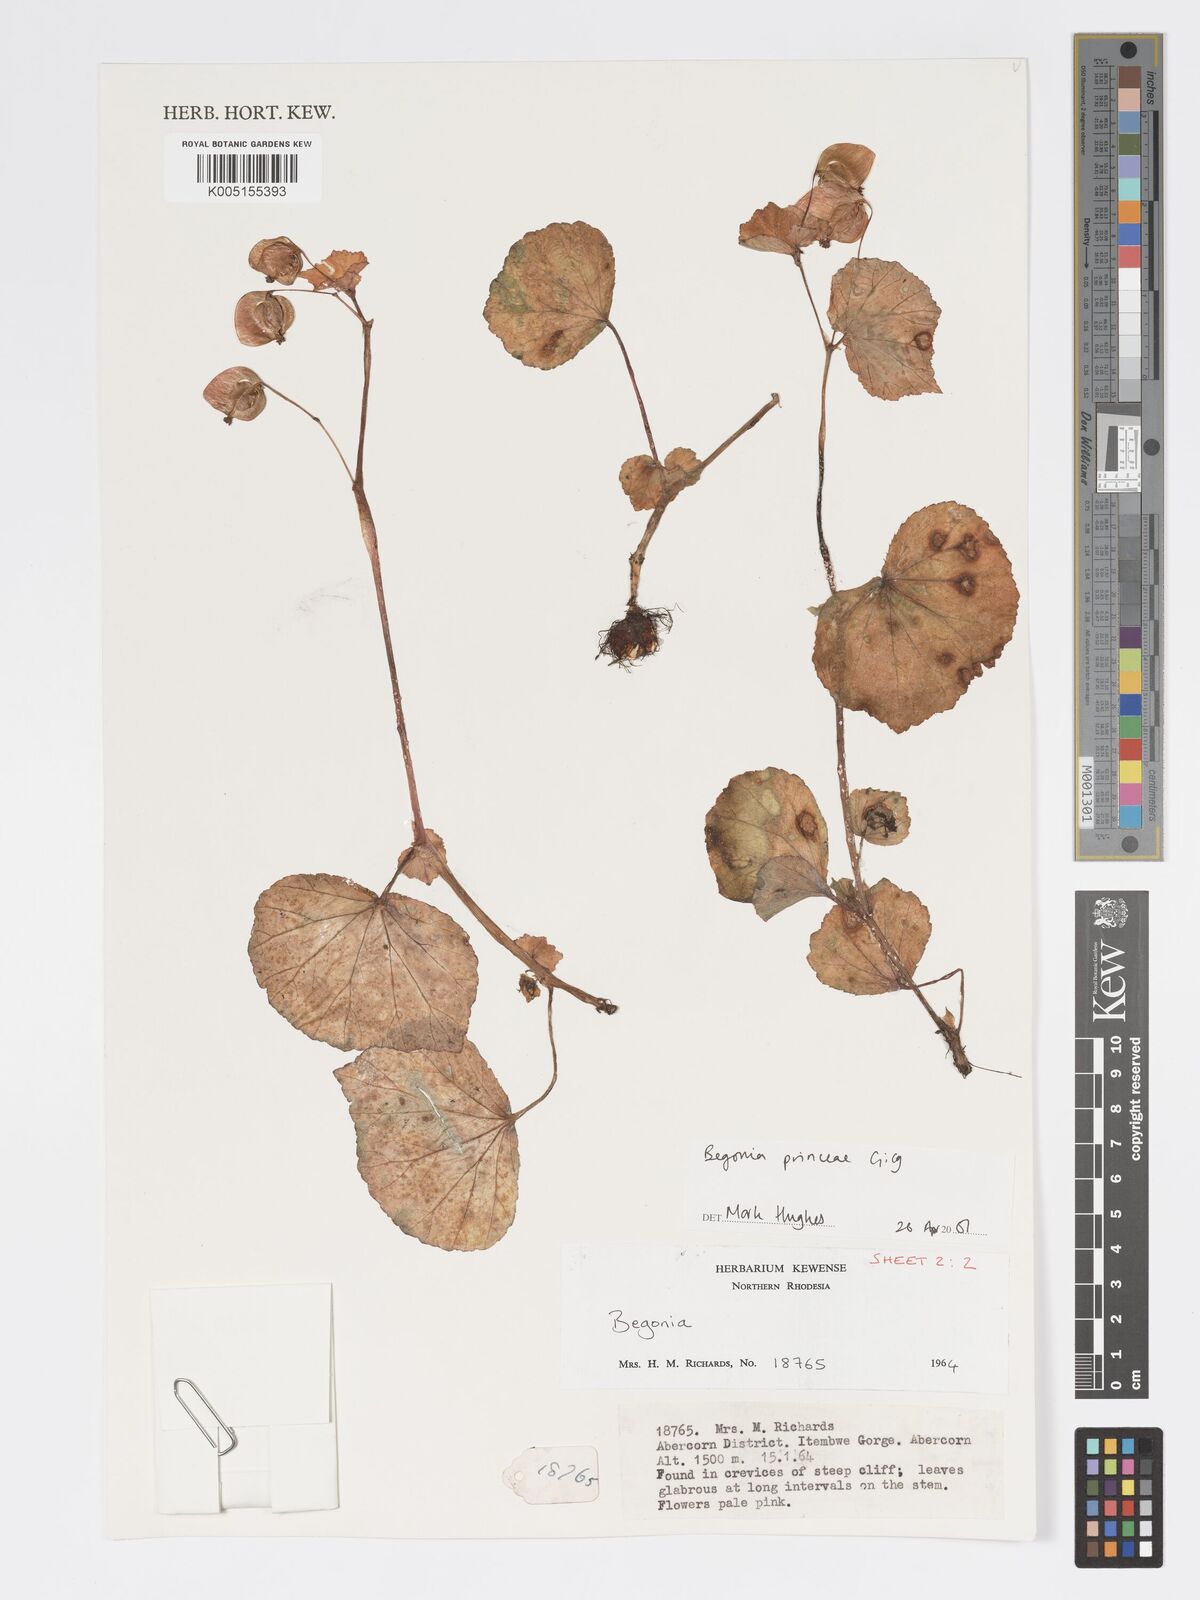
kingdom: Plantae
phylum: Tracheophyta
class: Magnoliopsida
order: Cucurbitales
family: Begoniaceae
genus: Begonia
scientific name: Begonia
